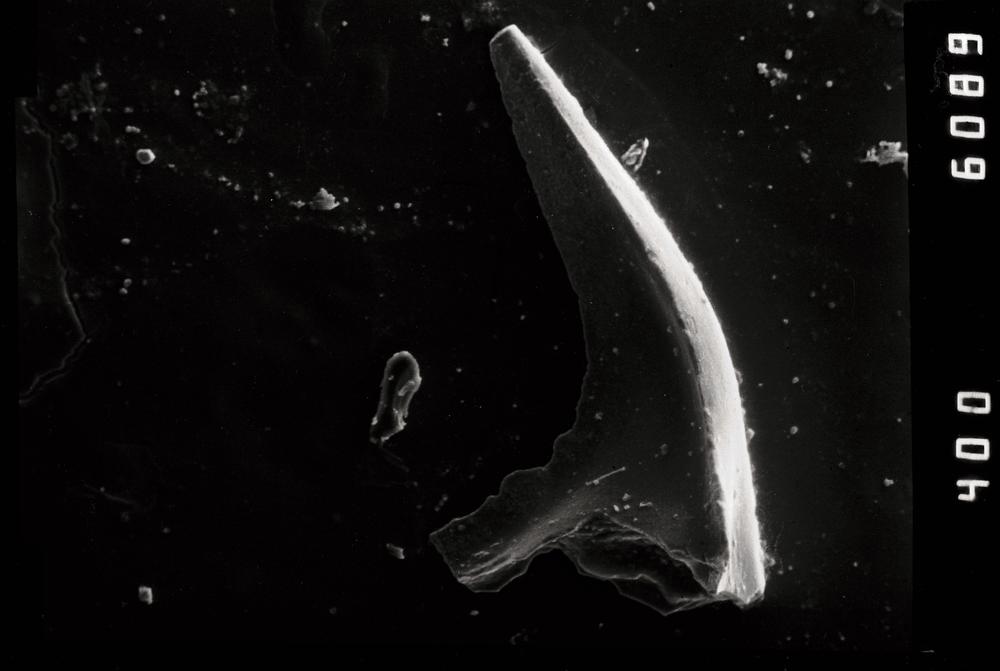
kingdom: Animalia
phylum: Chordata
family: Balognathidae
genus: Baltoniodus
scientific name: Baltoniodus
